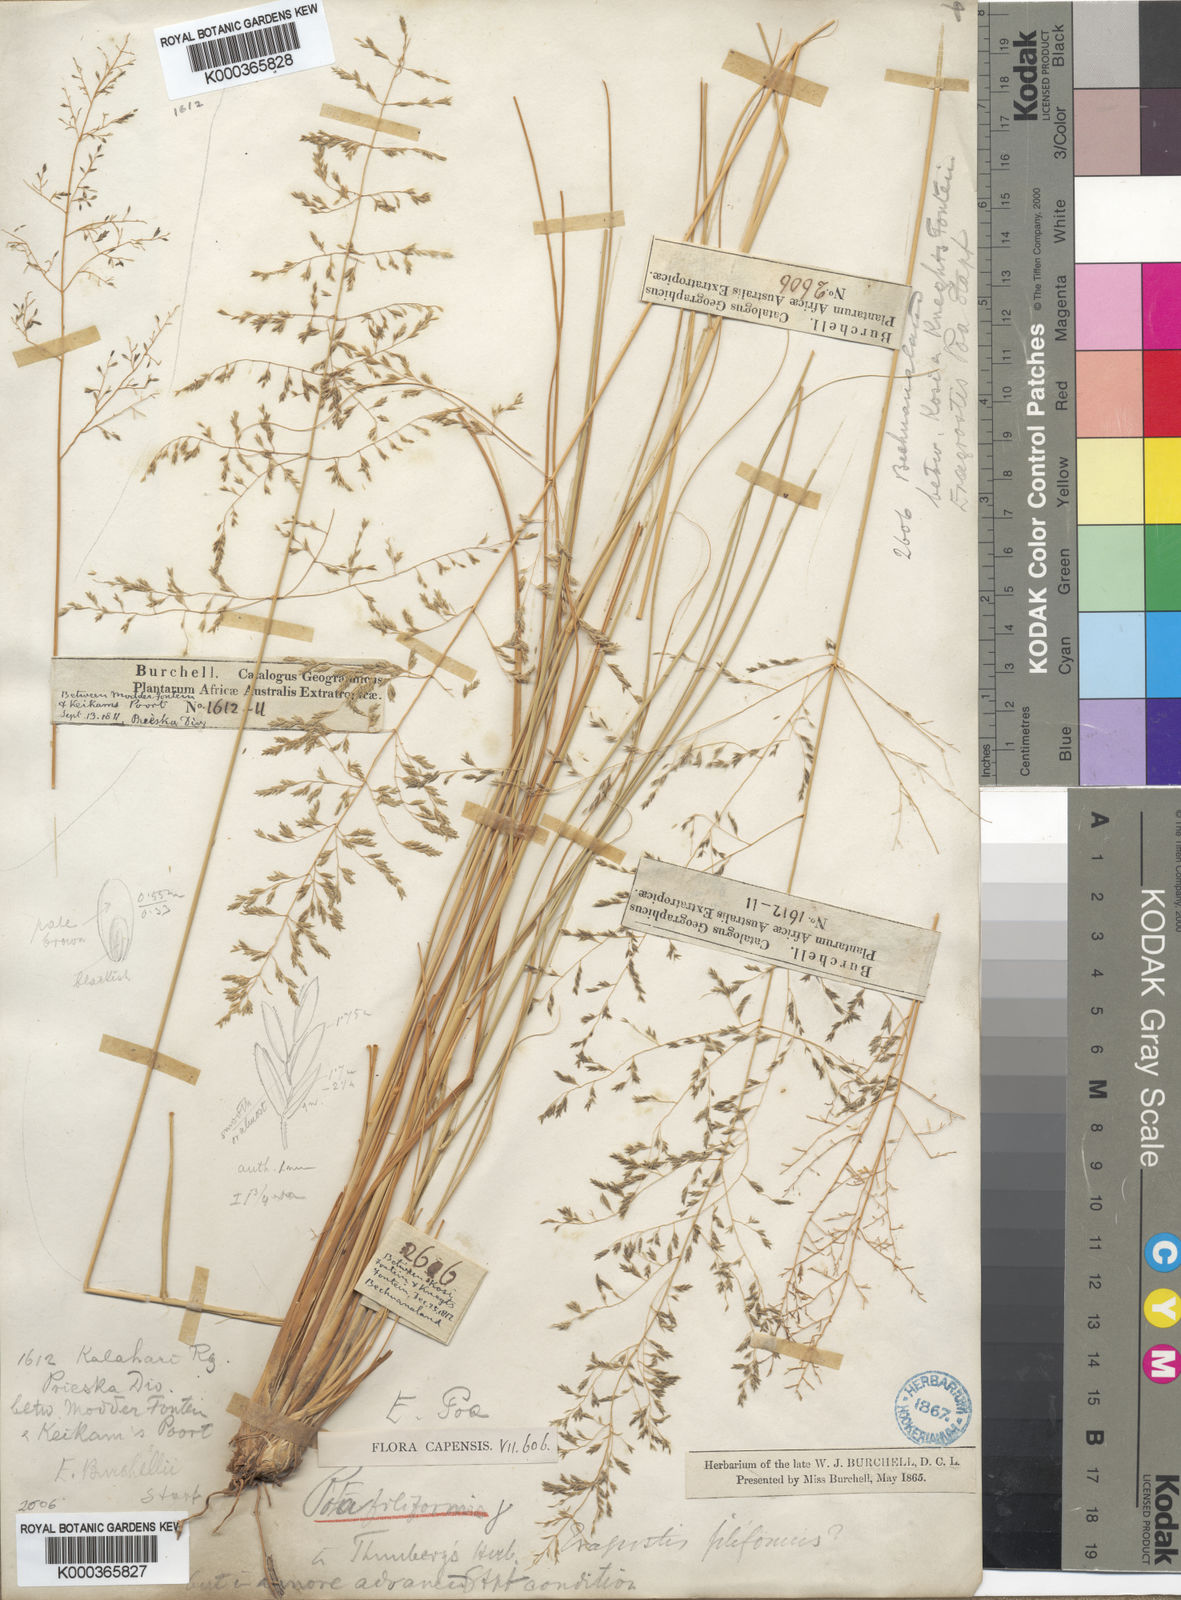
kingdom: Plantae
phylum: Tracheophyta
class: Liliopsida
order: Poales
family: Poaceae
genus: Eragrostis
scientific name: Eragrostis curvula
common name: African love-grass
